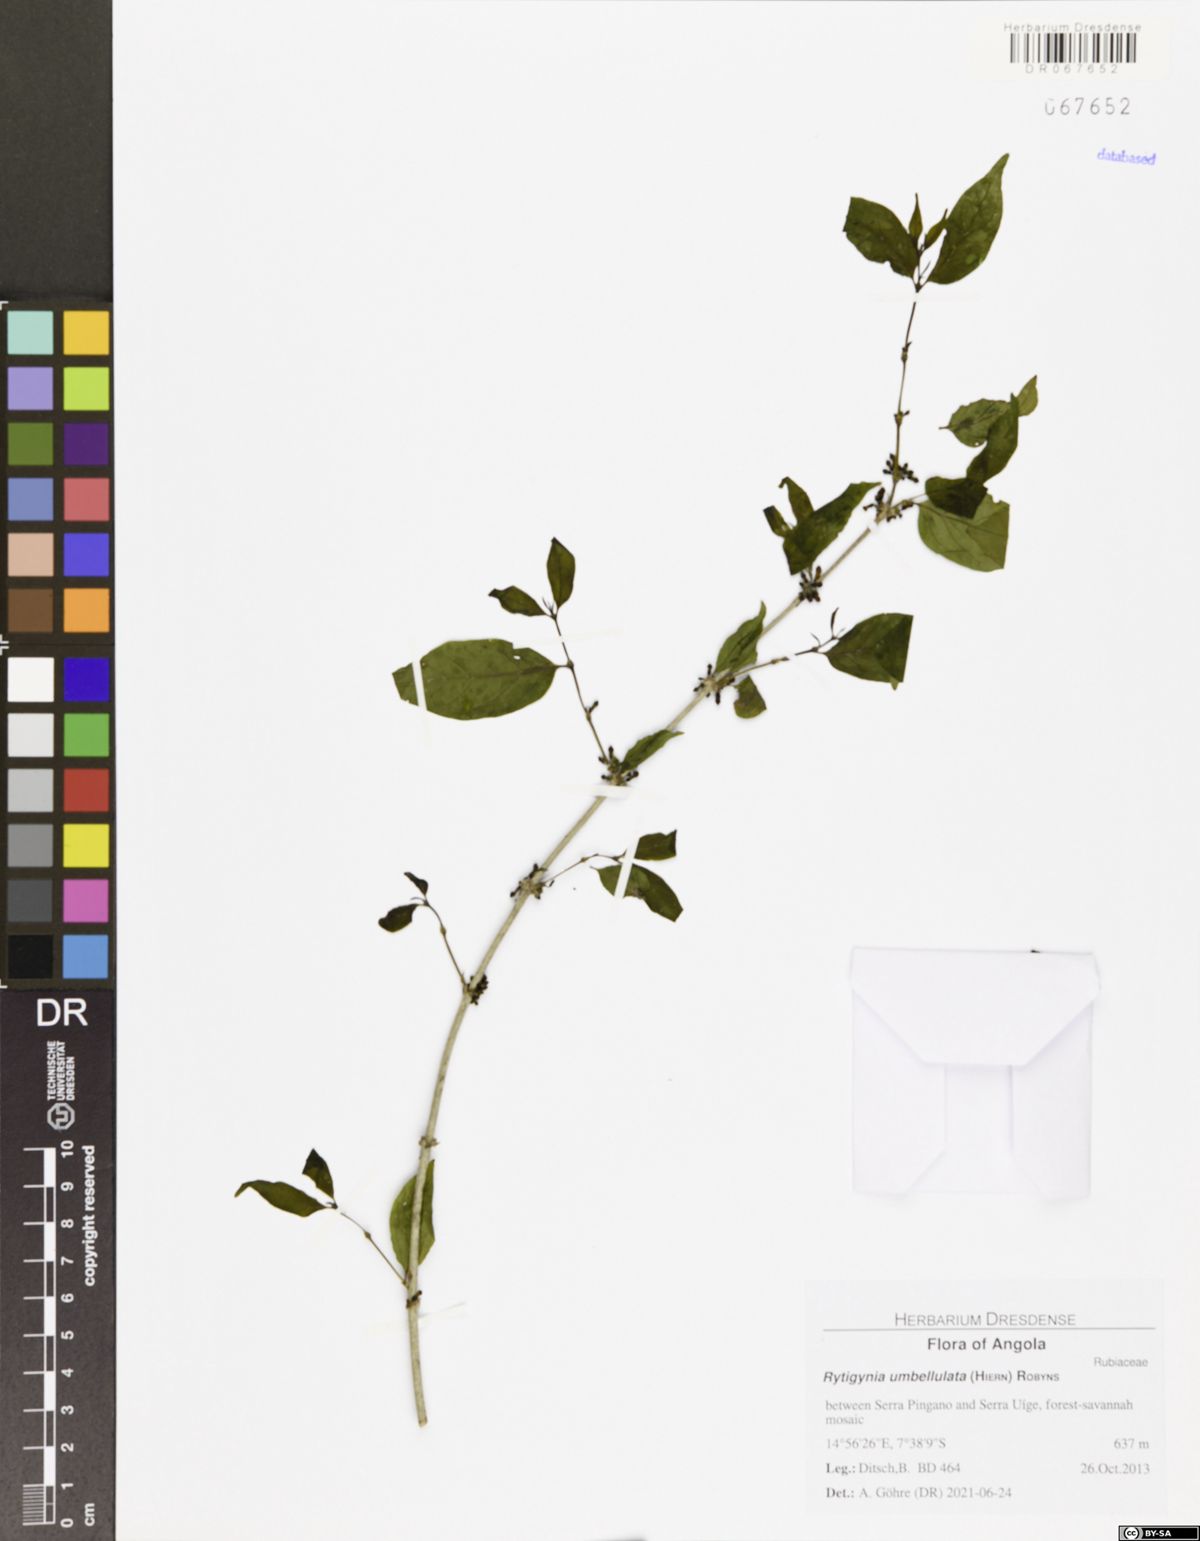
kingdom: Plantae
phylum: Tracheophyta
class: Magnoliopsida
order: Gentianales
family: Rubiaceae
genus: Rytigynia
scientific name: Rytigynia umbellulata
